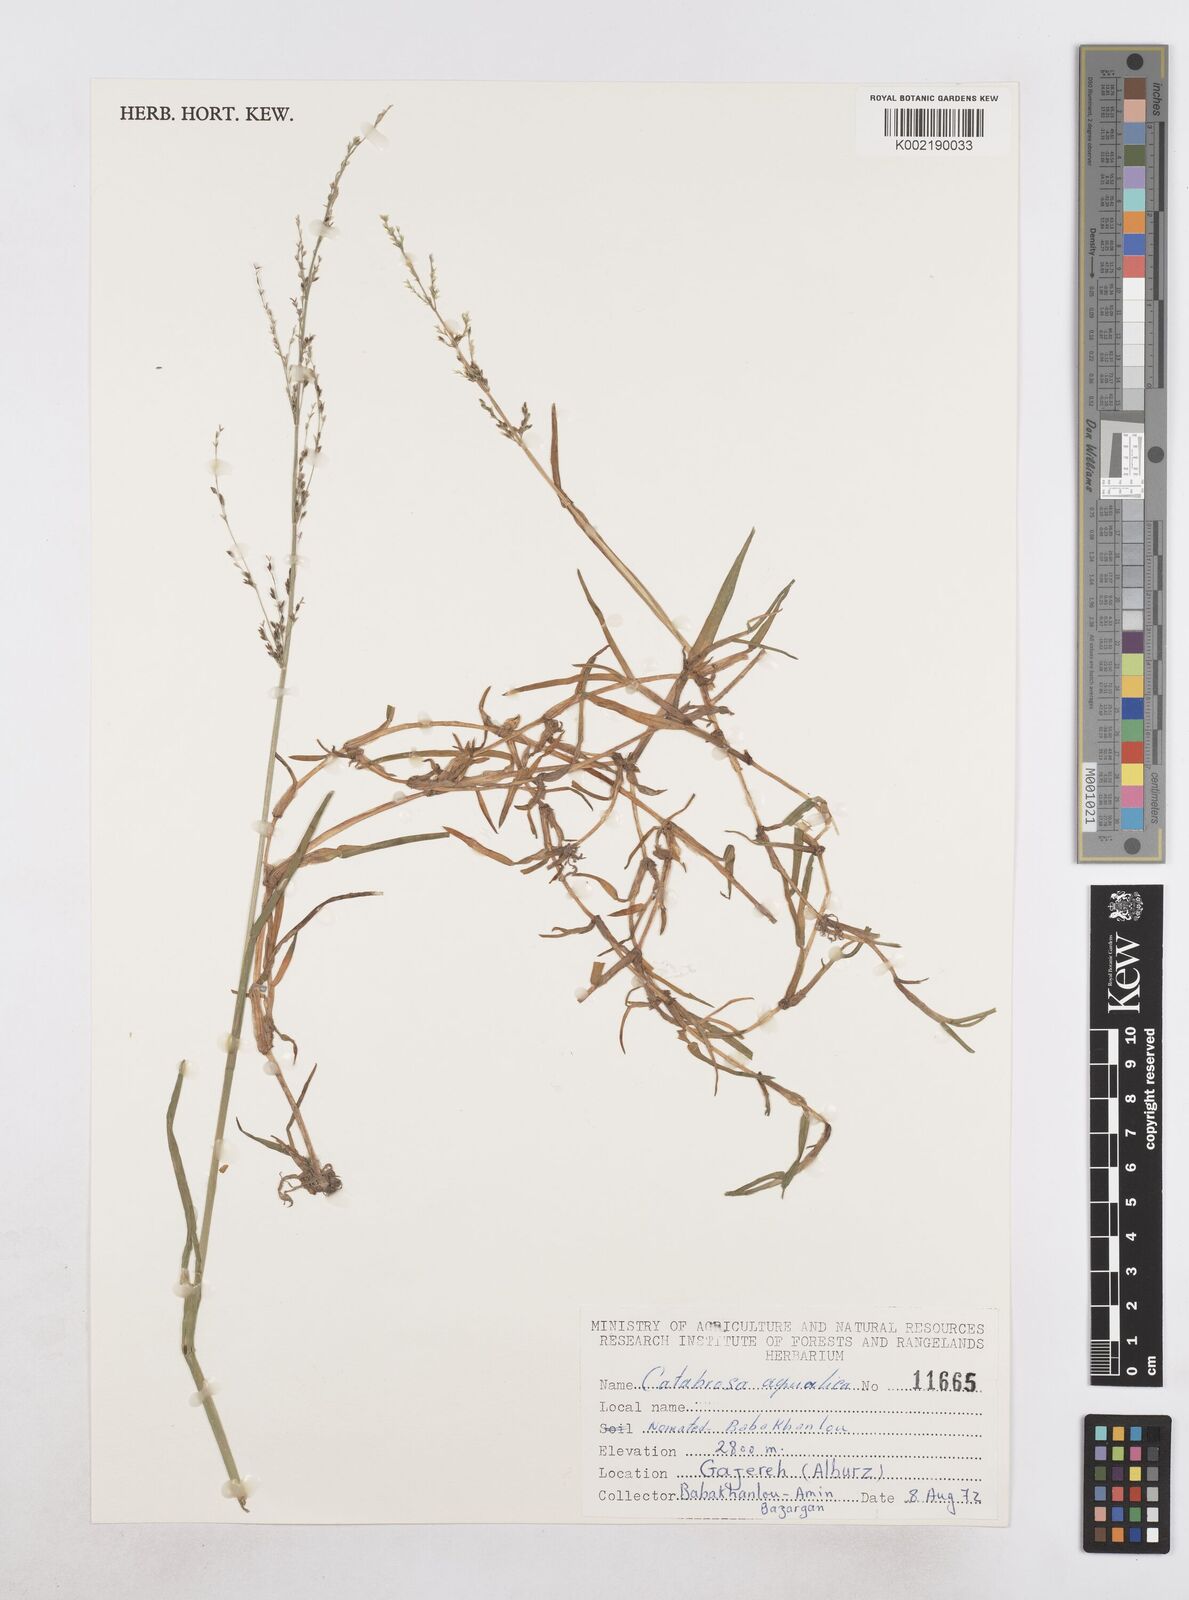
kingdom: Plantae
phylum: Tracheophyta
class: Liliopsida
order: Poales
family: Poaceae
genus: Catabrosa
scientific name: Catabrosa aquatica
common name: Whorl-grass
